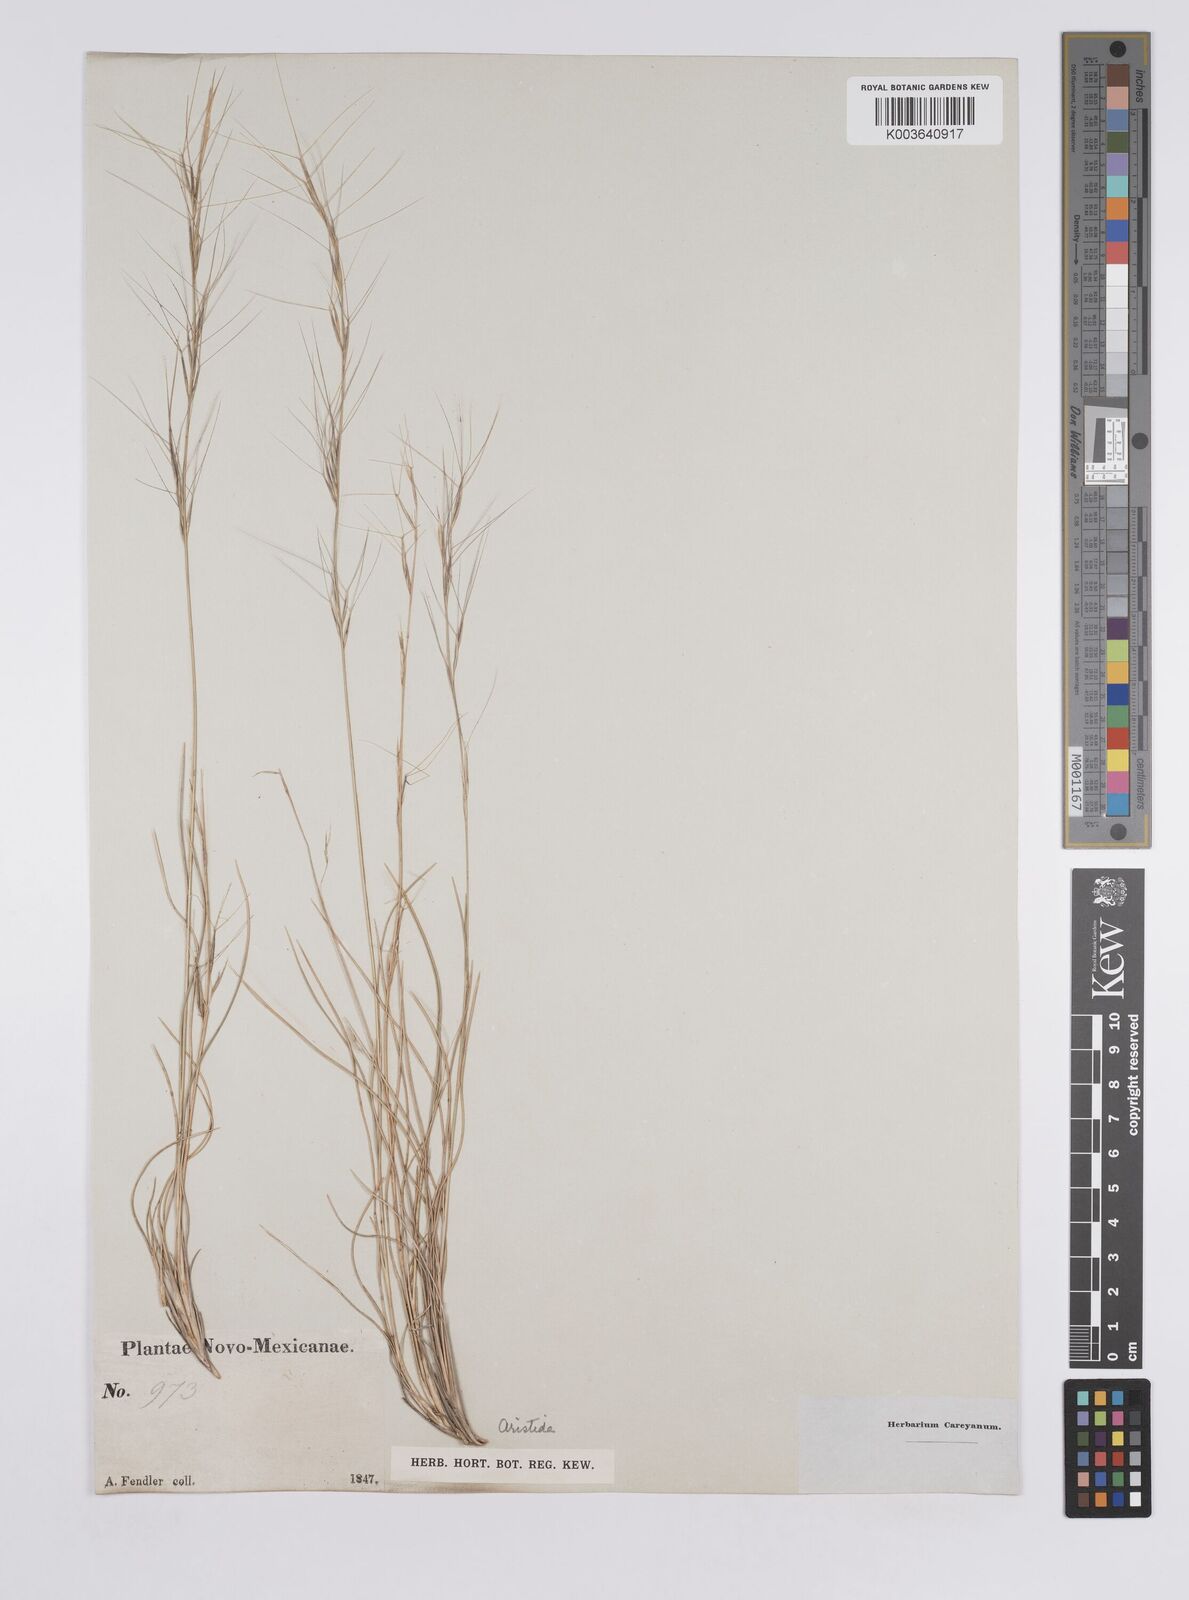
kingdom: Plantae
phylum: Tracheophyta
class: Liliopsida
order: Poales
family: Poaceae
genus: Aristida
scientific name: Aristida purpurea
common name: Purple threeawn
